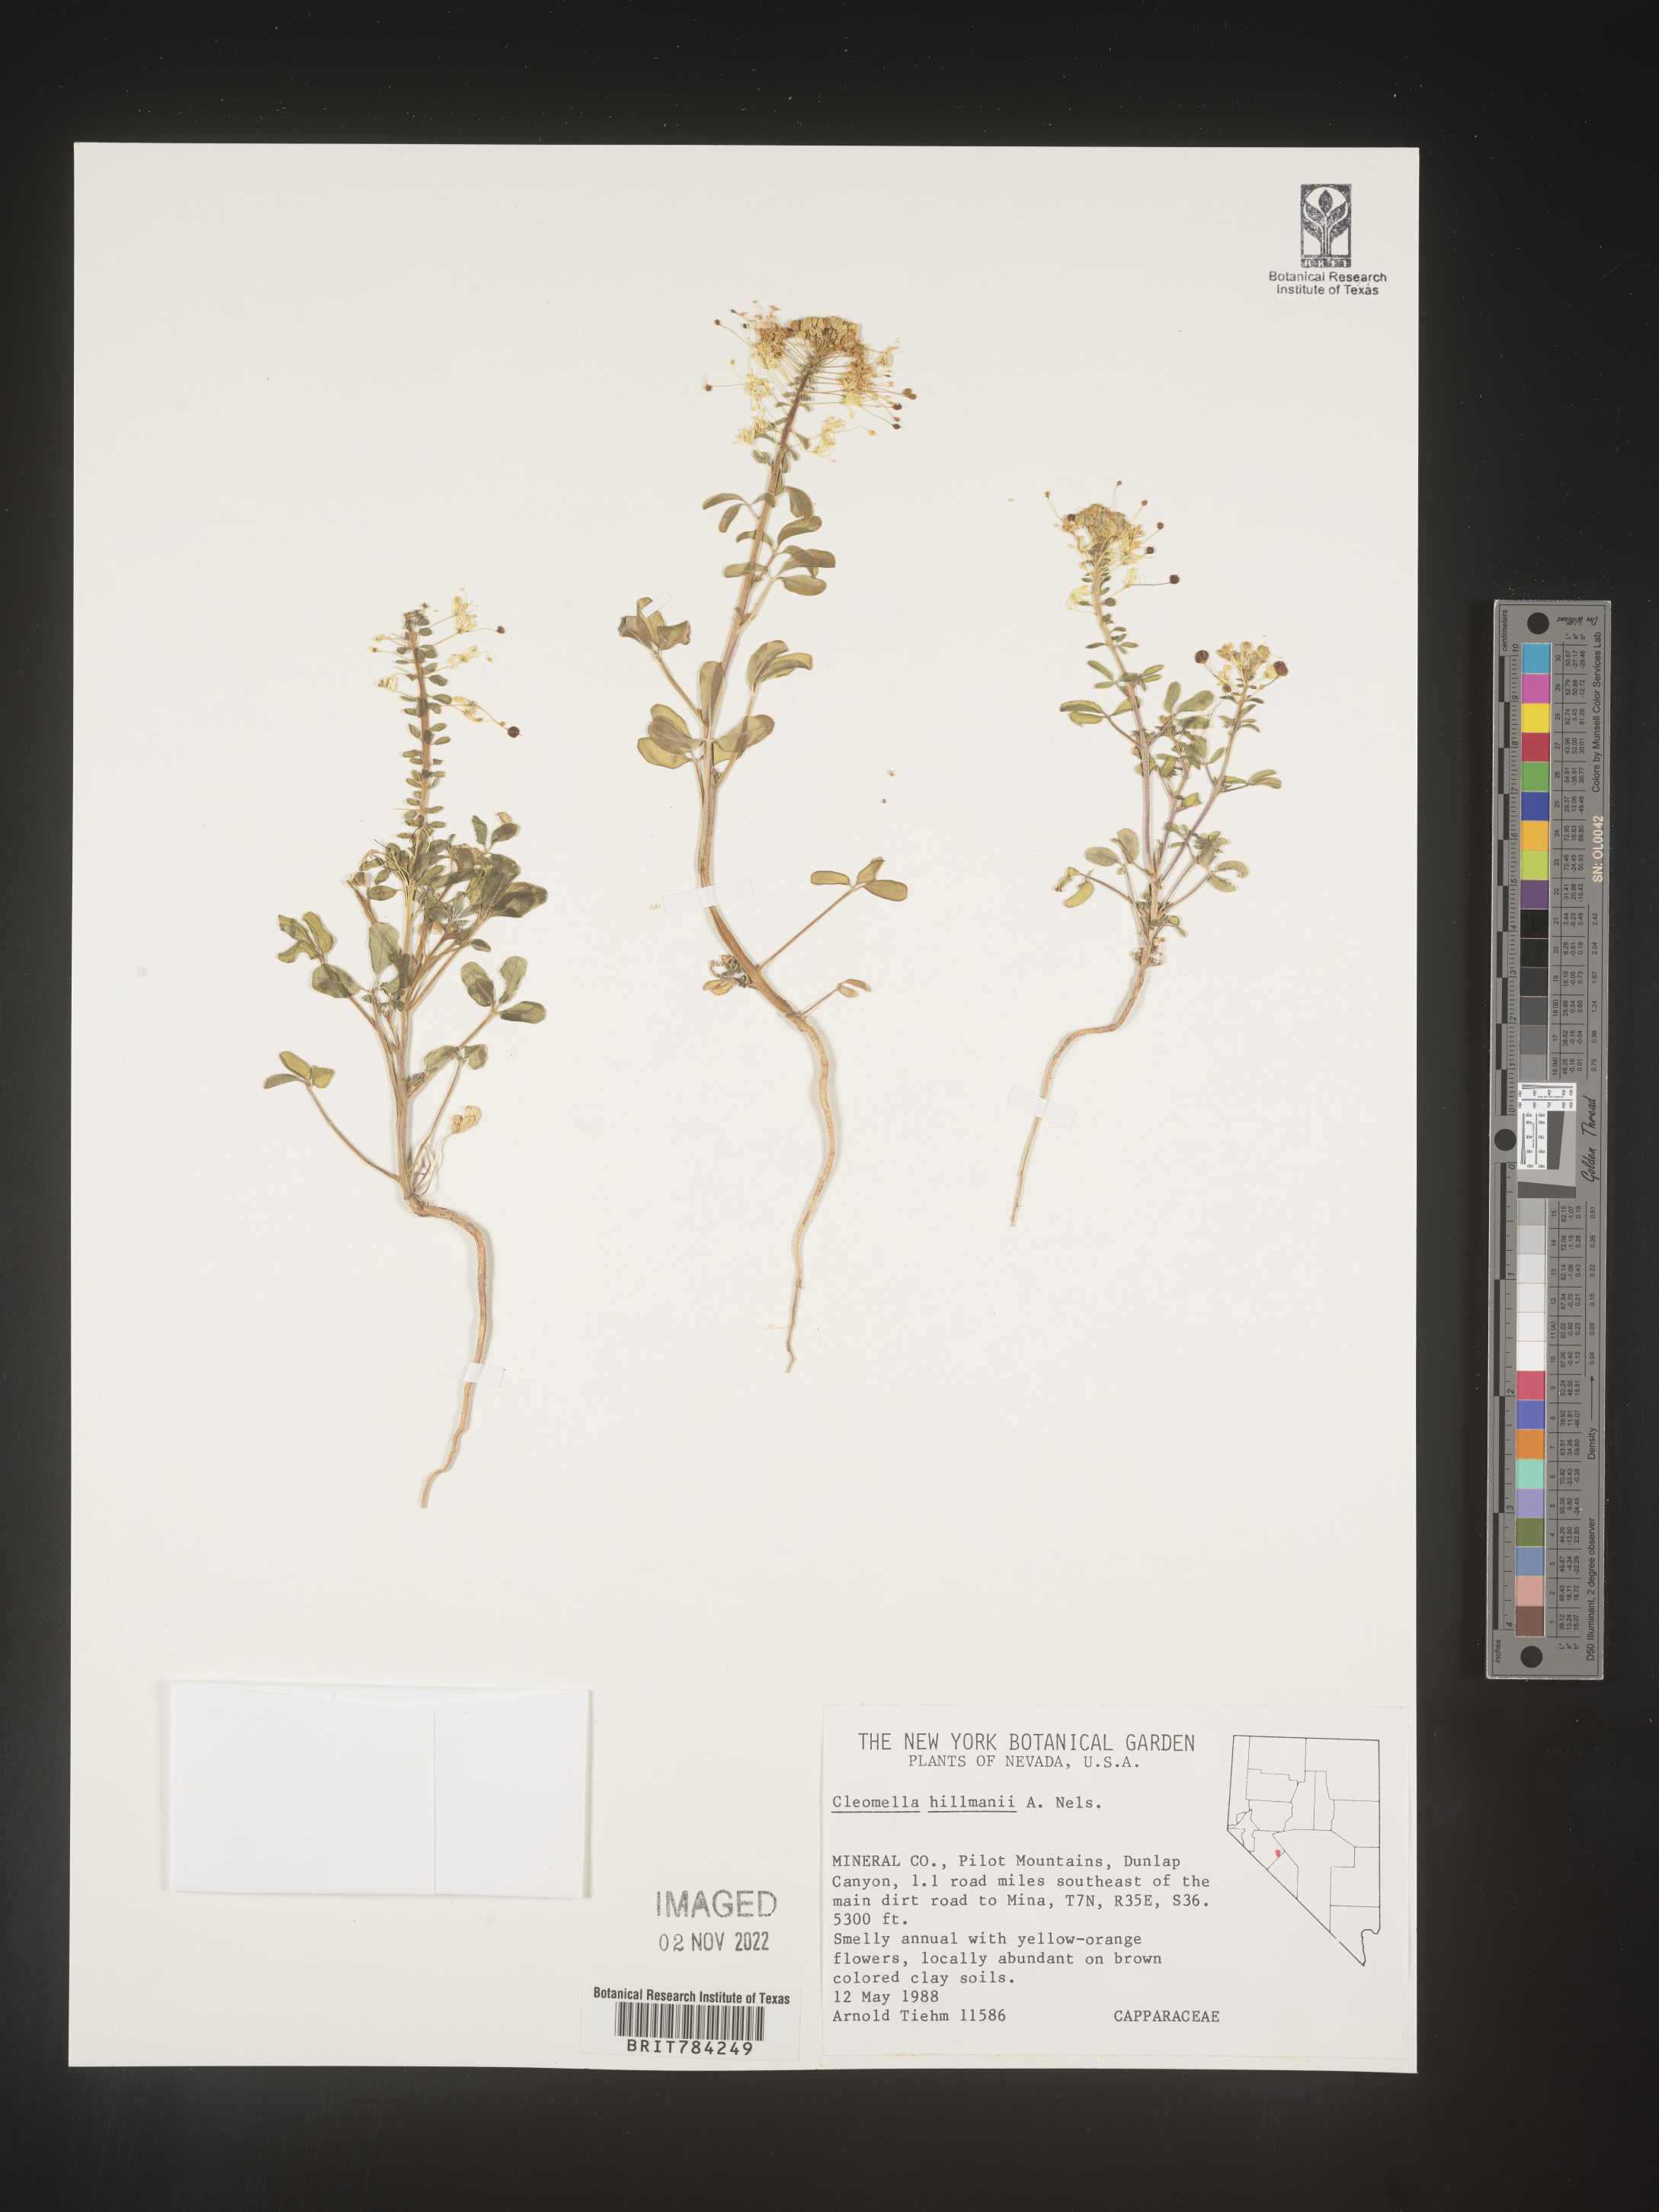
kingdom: Plantae
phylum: Tracheophyta
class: Magnoliopsida
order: Brassicales
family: Cleomaceae
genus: Cleomella
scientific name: Cleomella
